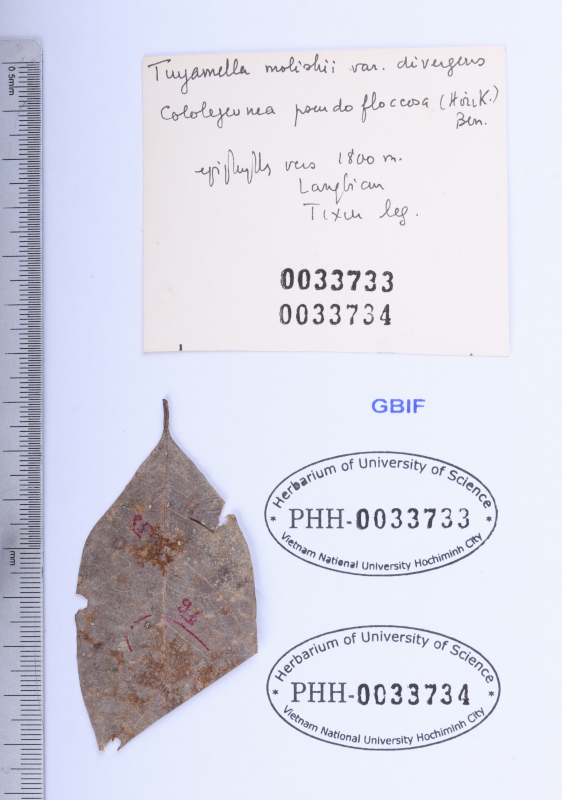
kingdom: Plantae
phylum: Marchantiophyta
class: Jungermanniopsida
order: Porellales
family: Lejeuneaceae
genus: Tuyamaella
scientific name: Tuyamaella molischii
